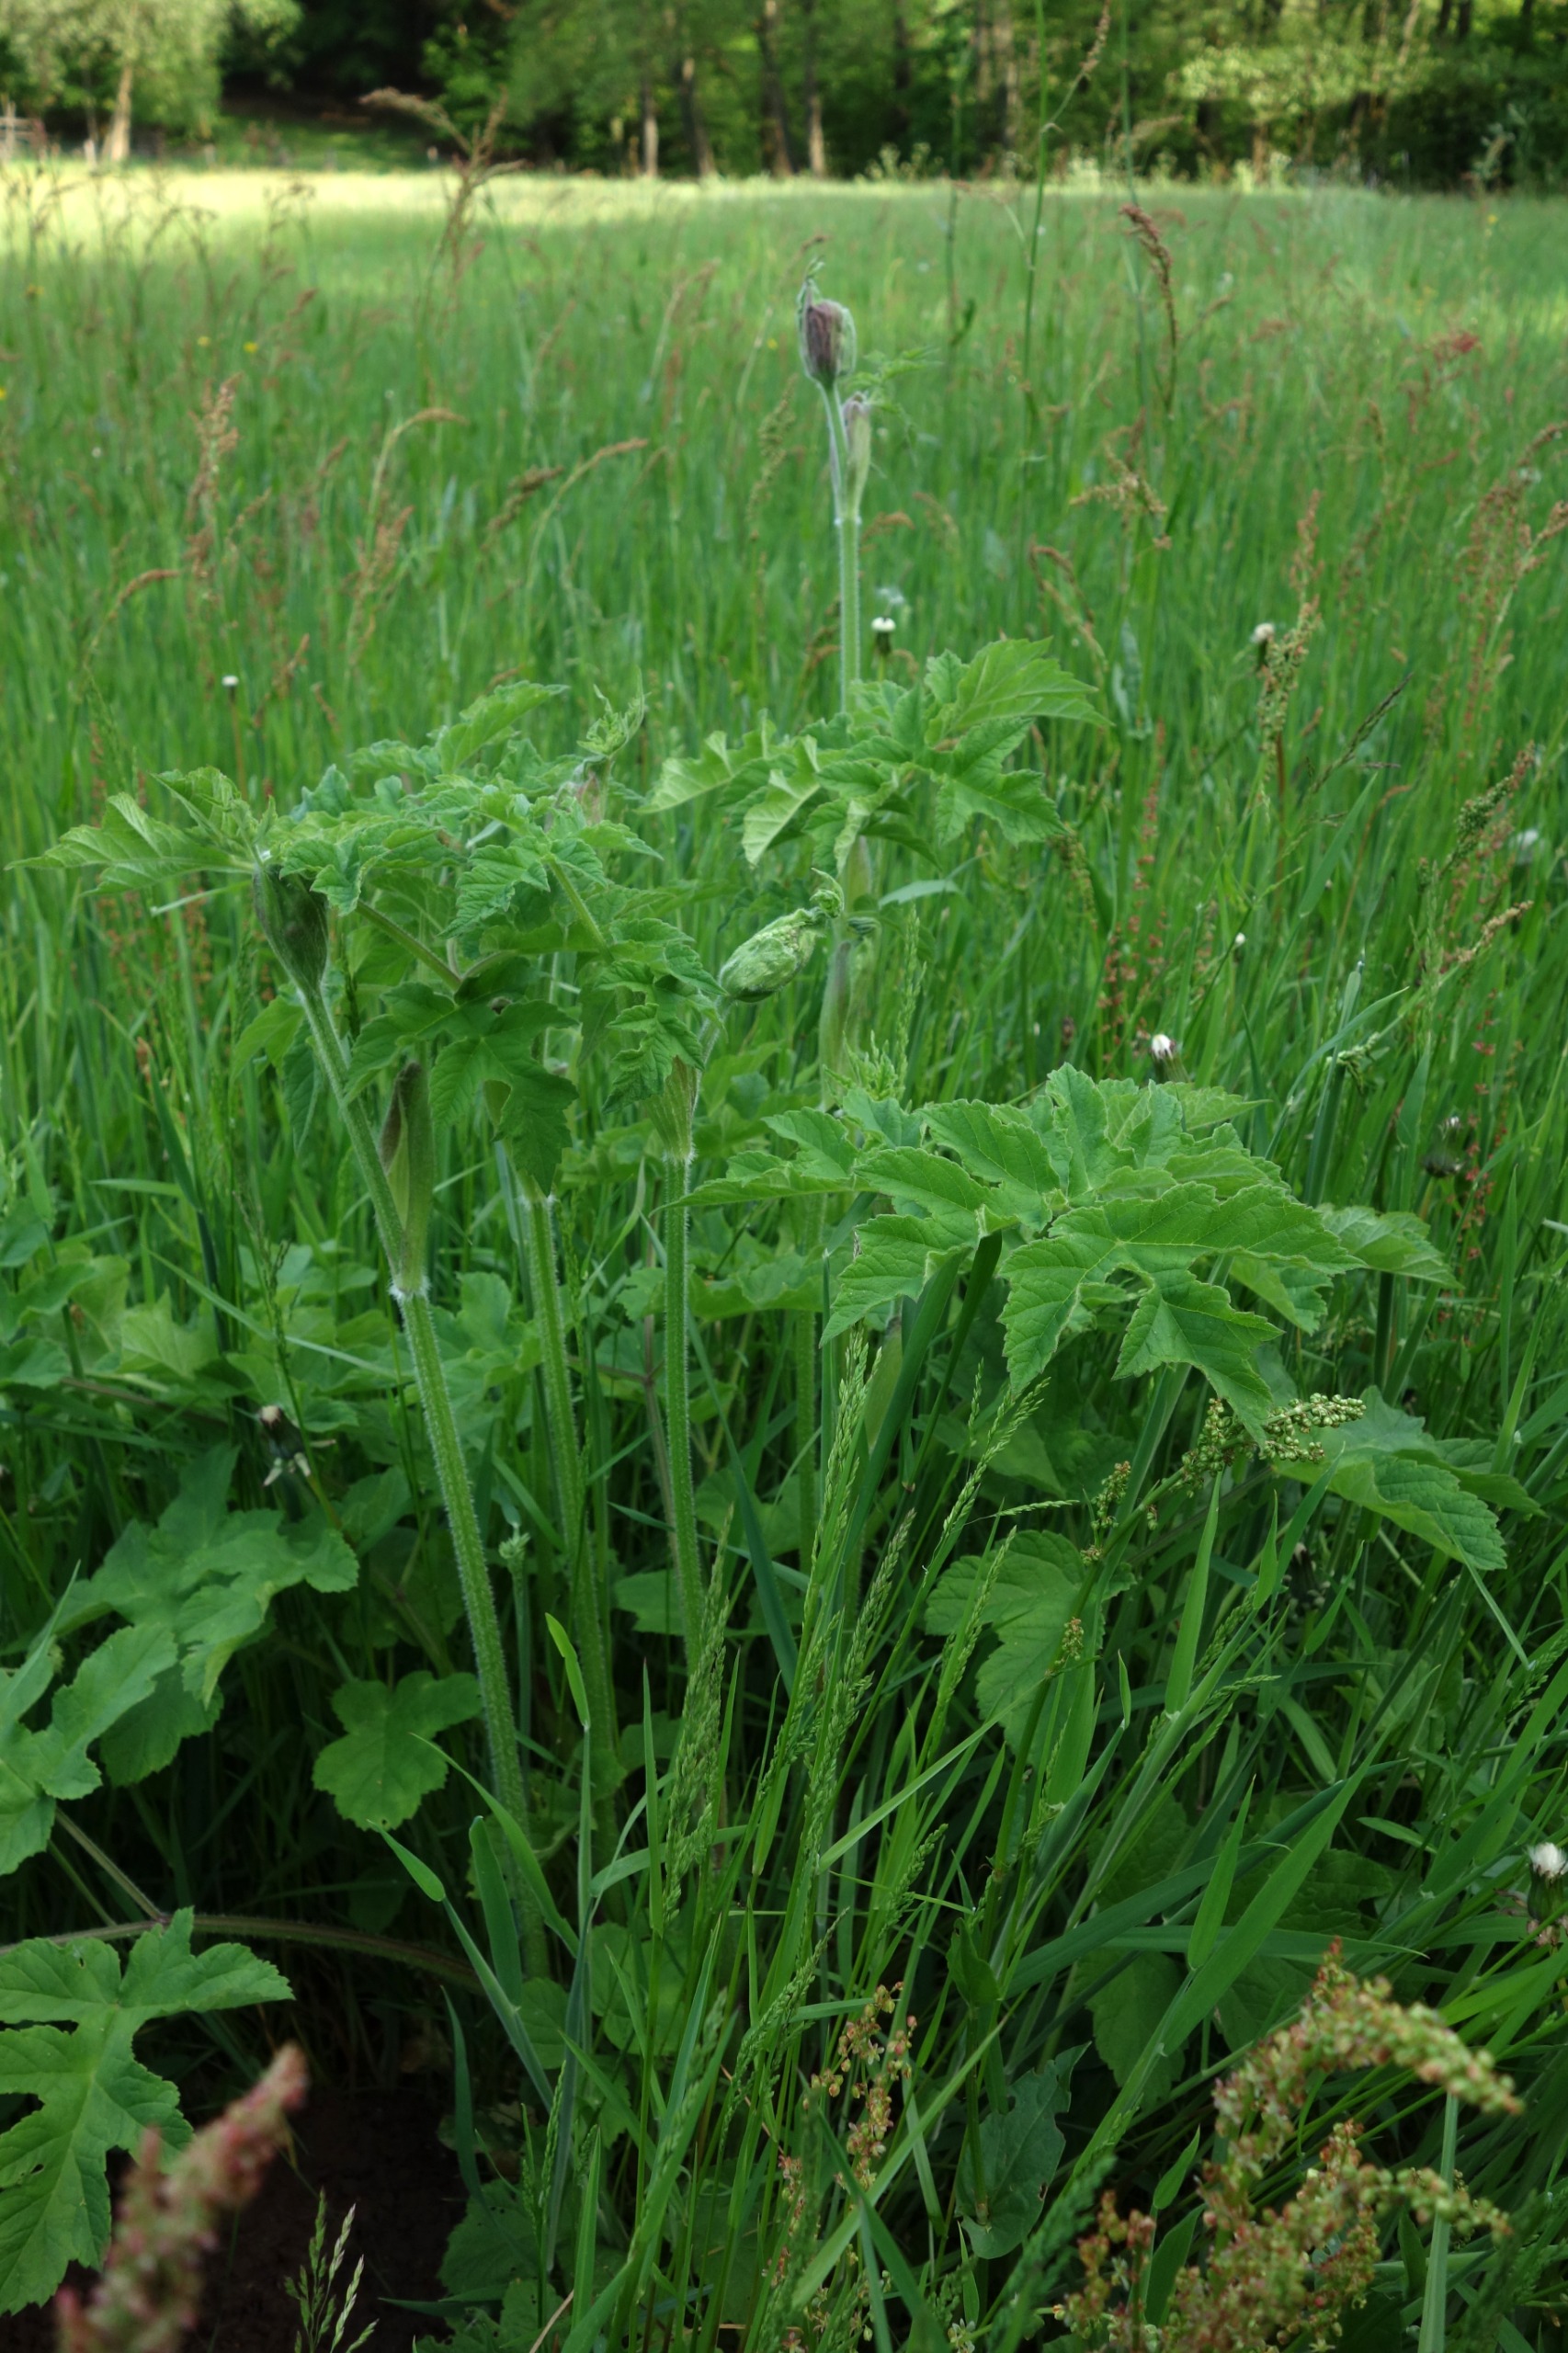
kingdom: Plantae
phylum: Tracheophyta
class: Magnoliopsida
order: Apiales
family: Apiaceae
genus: Heracleum
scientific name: Heracleum sphondylium
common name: Almindelig bjørneklo
